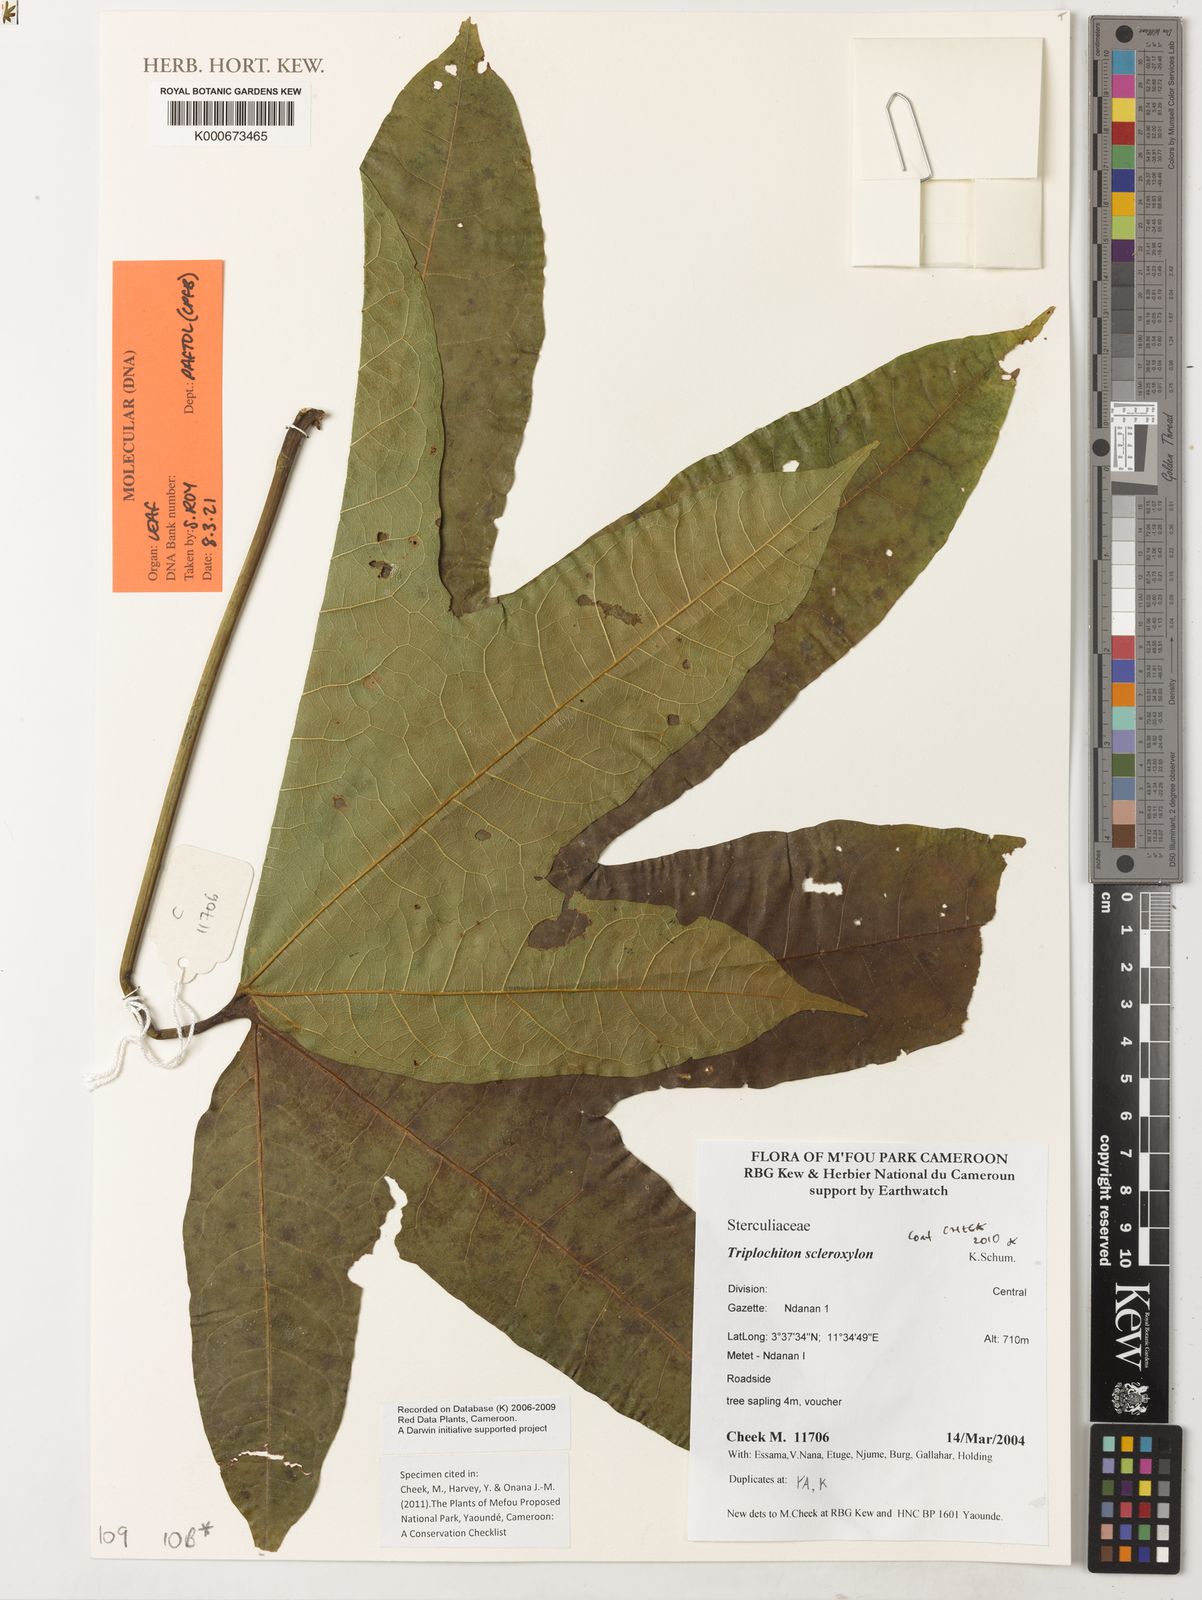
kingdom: Plantae
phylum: Tracheophyta
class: Magnoliopsida
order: Malvales
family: Malvaceae
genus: Triplochiton
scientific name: Triplochiton scleroxylon
